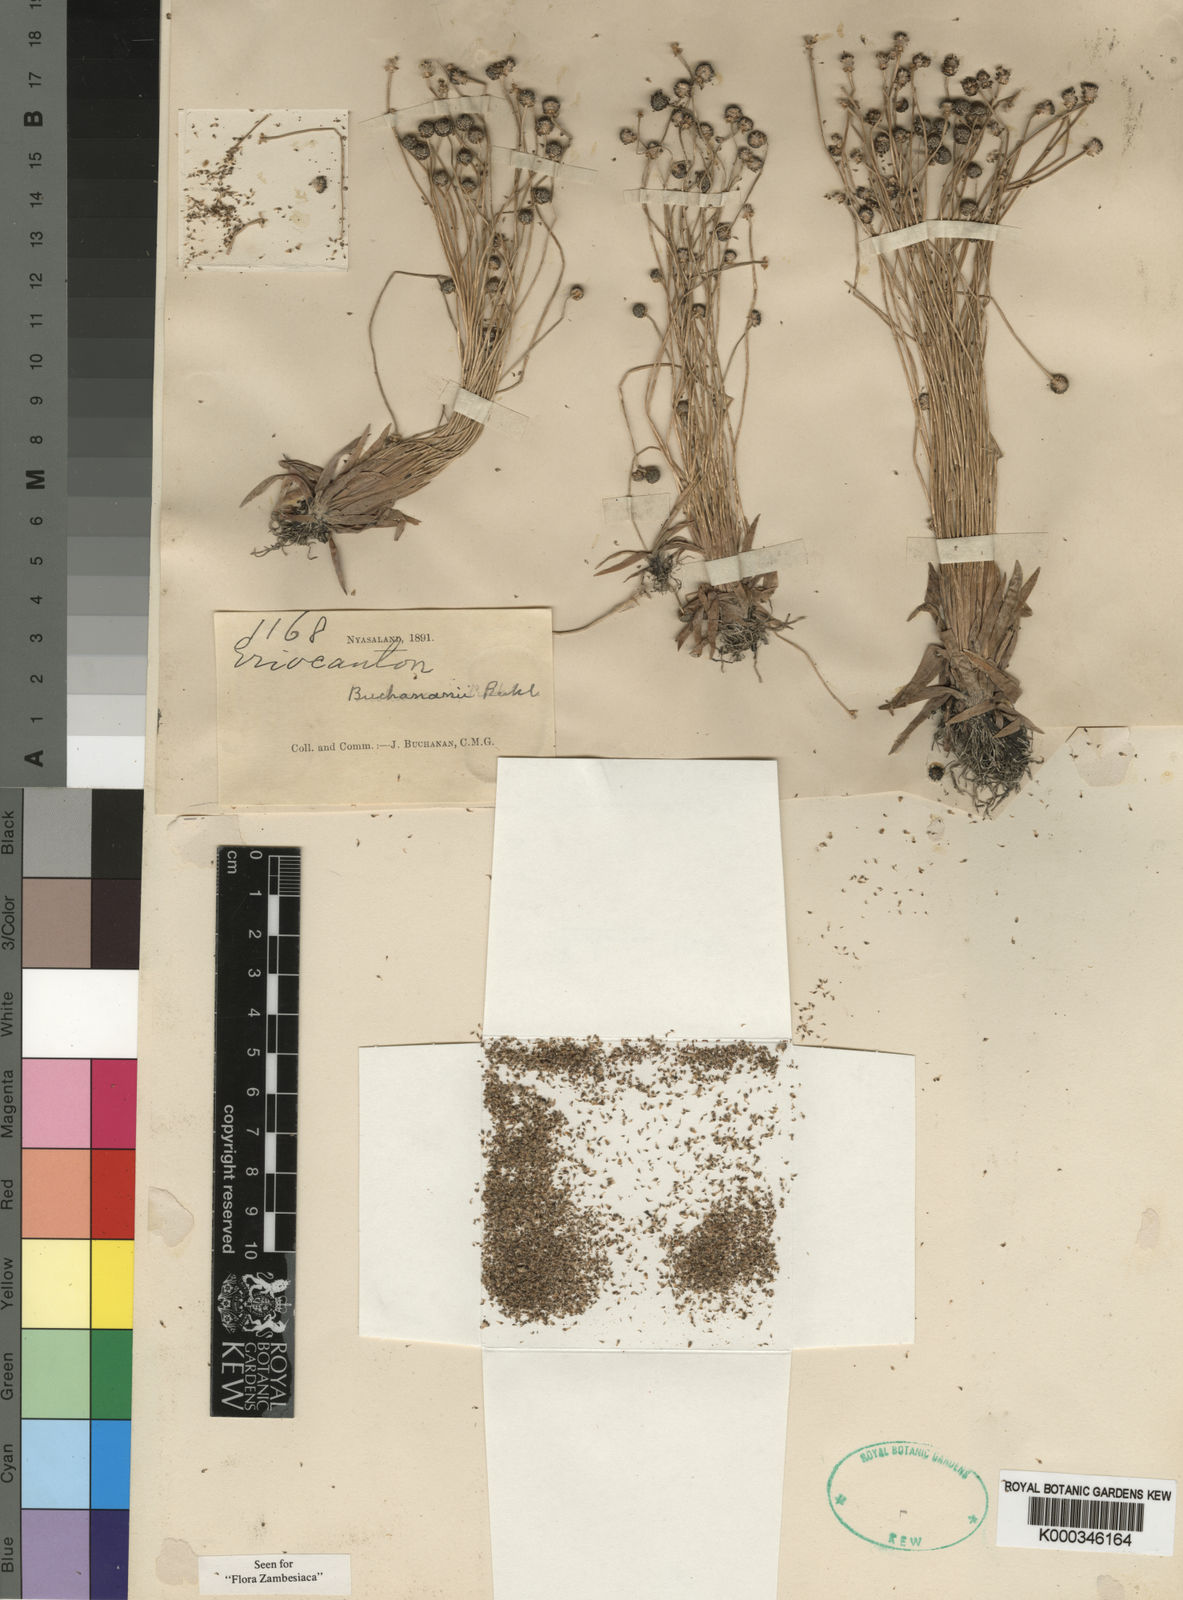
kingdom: Plantae
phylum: Tracheophyta
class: Liliopsida
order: Poales
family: Eriocaulaceae
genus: Eriocaulon
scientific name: Eriocaulon buchananii
